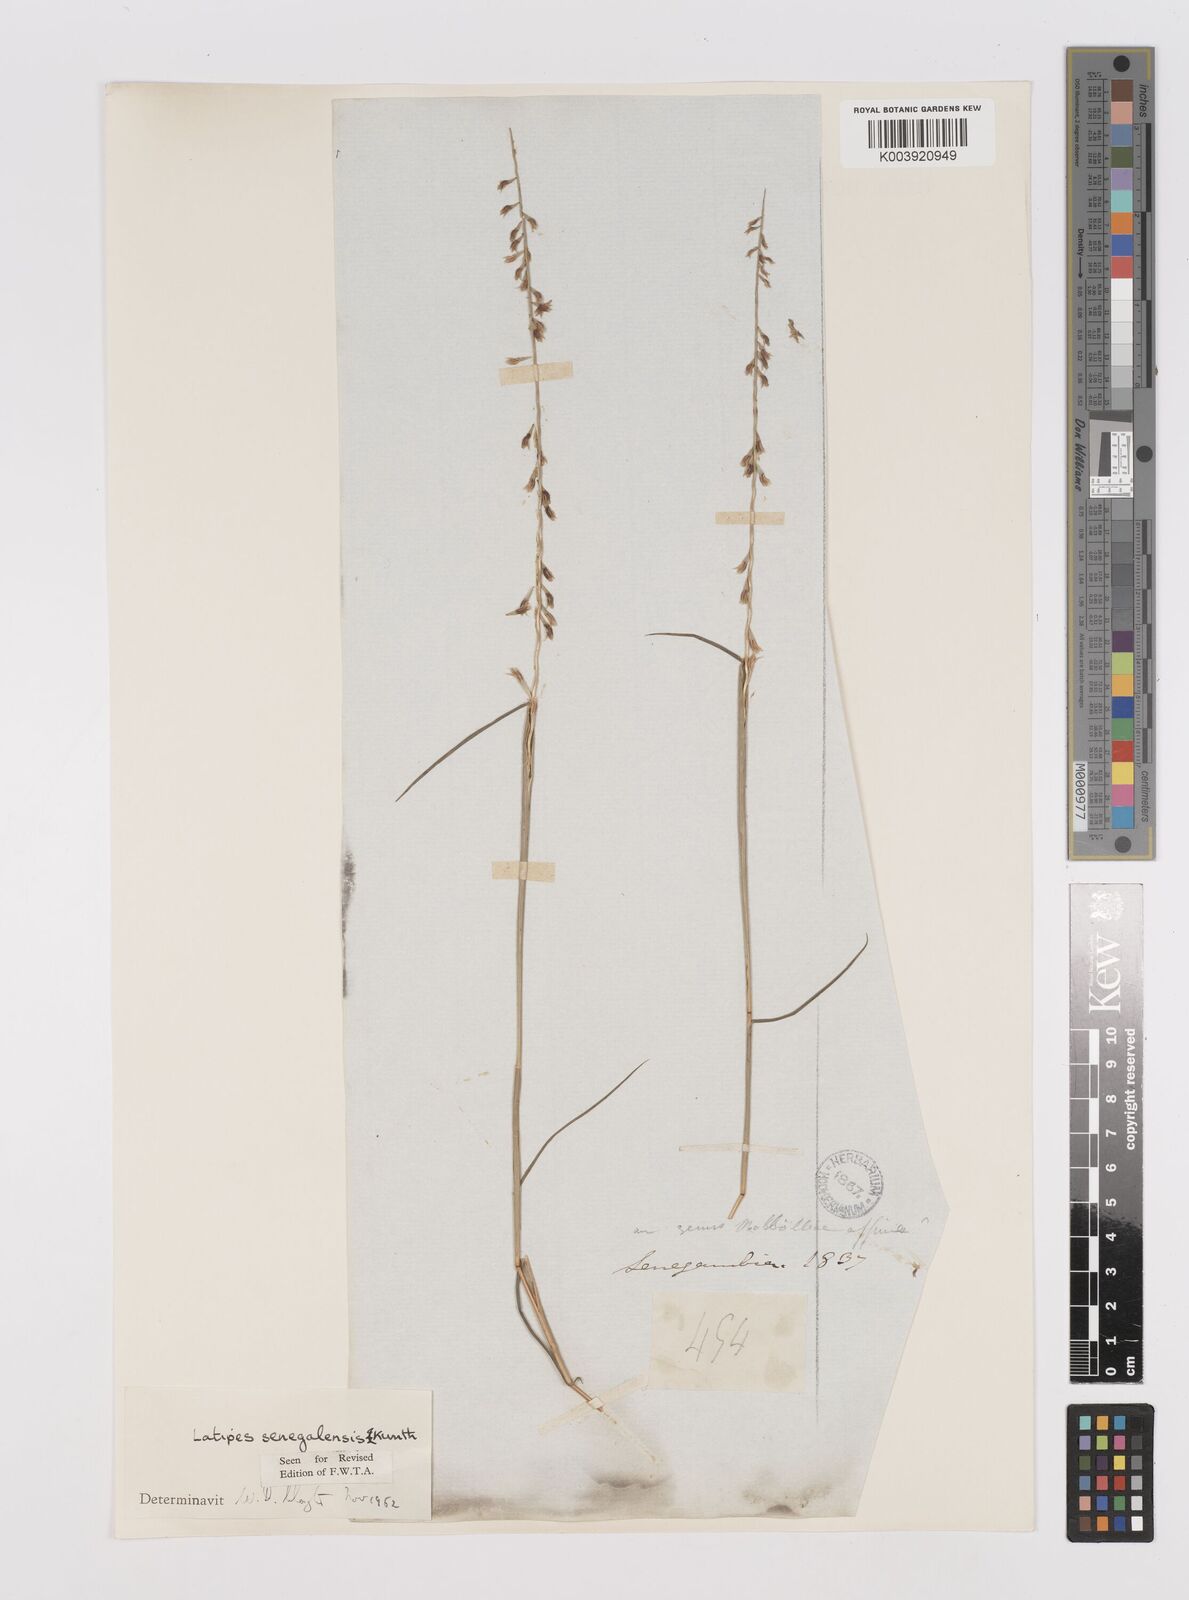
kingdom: Plantae
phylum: Tracheophyta
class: Liliopsida
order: Poales
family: Poaceae
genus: Leptothrium
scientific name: Leptothrium senegalense
